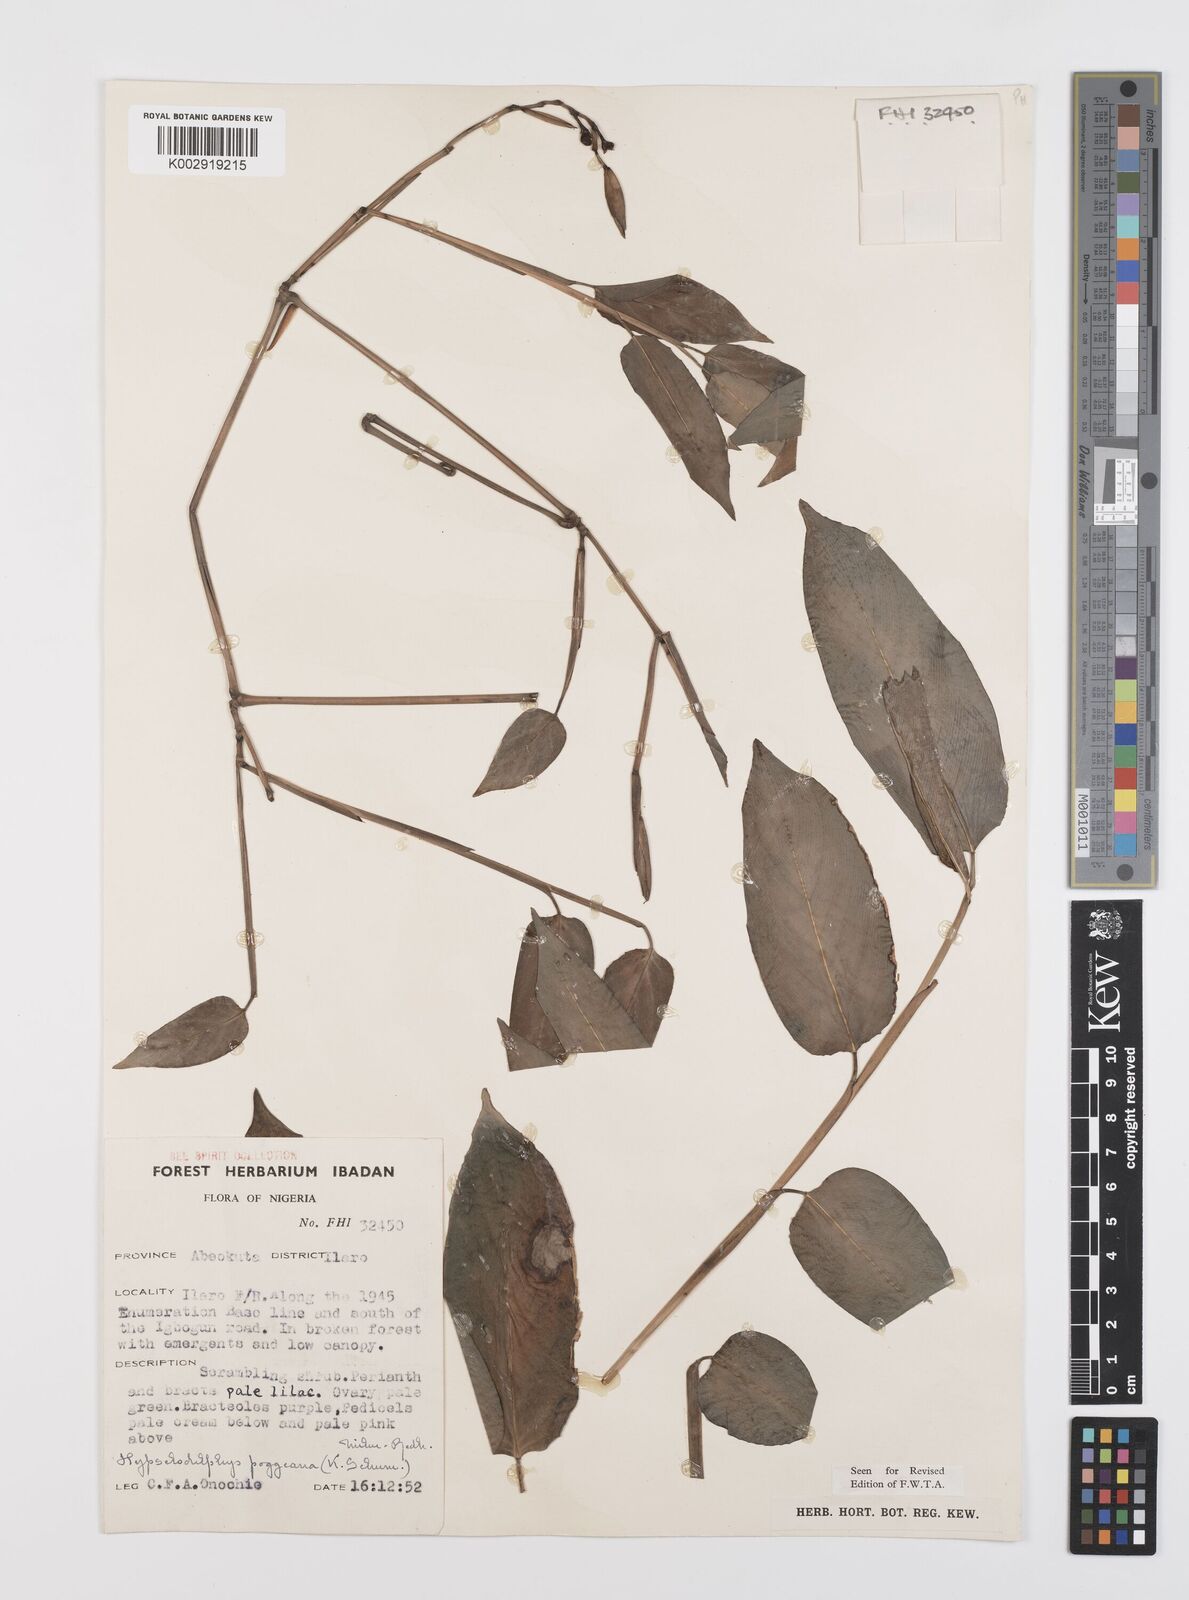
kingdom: Plantae
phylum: Tracheophyta
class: Liliopsida
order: Zingiberales
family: Marantaceae
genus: Hypselodelphys
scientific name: Hypselodelphys poggeana
